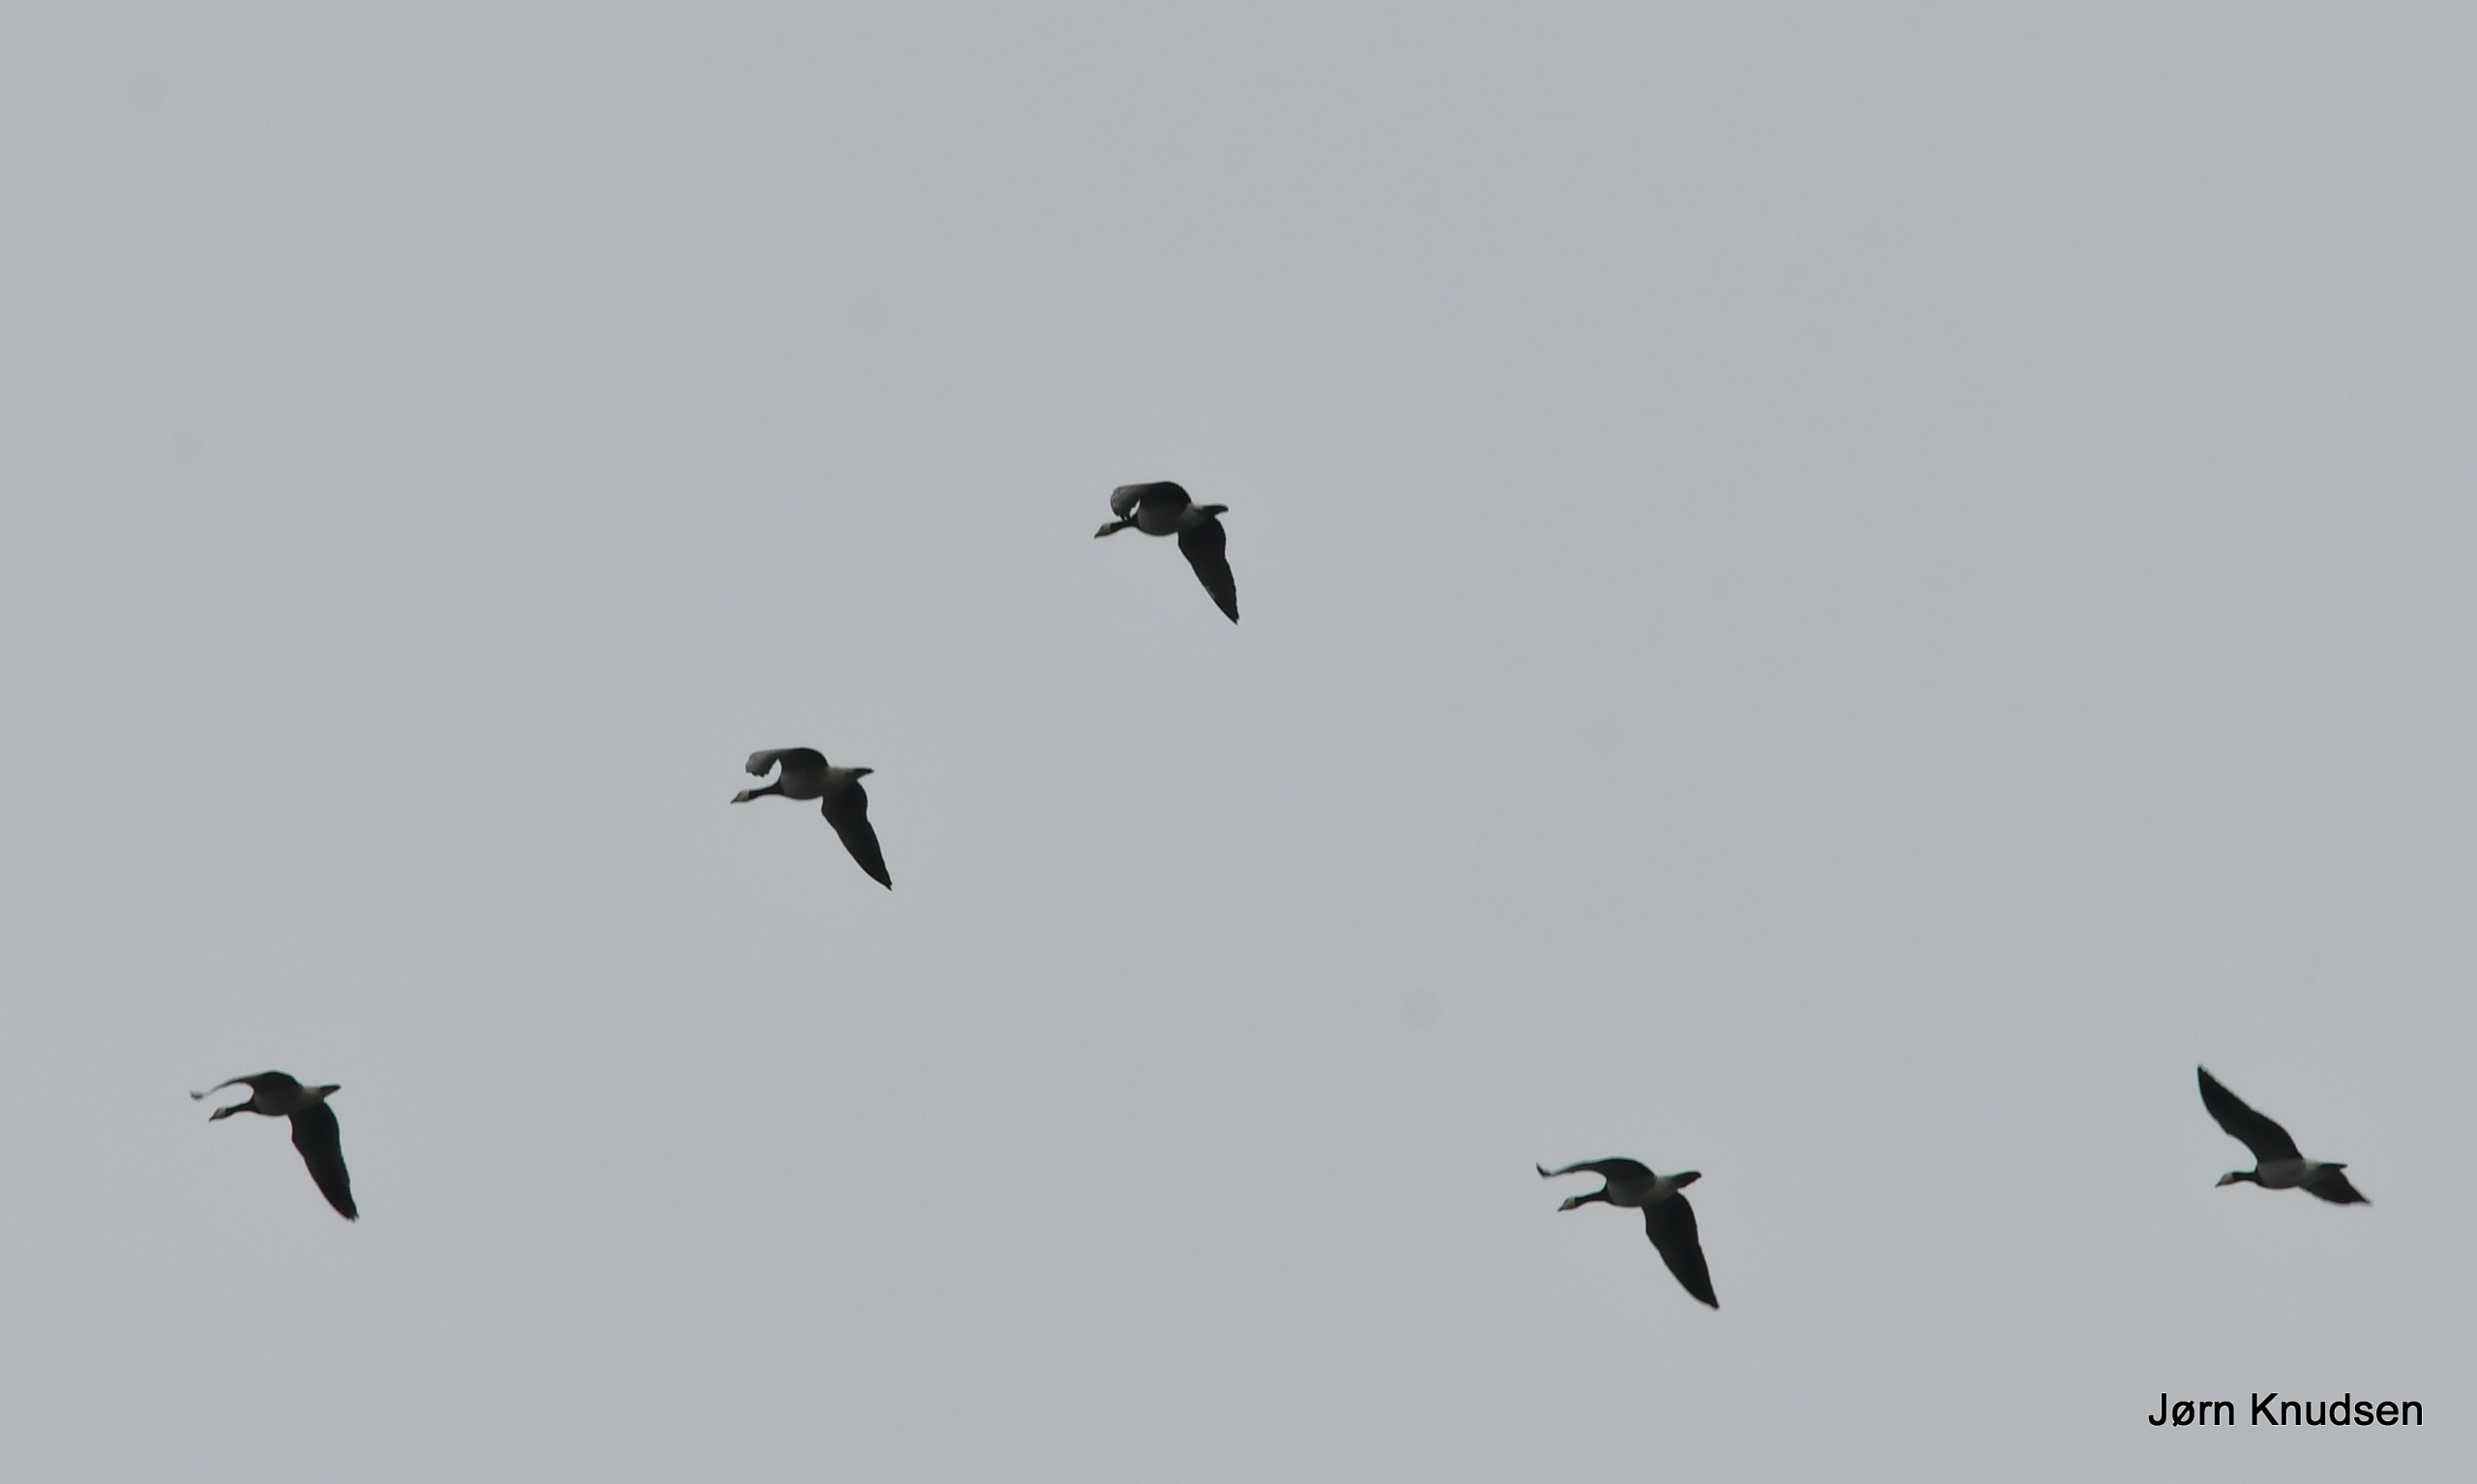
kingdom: Animalia
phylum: Chordata
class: Aves
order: Anseriformes
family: Anatidae
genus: Branta
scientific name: Branta leucopsis
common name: Bramgås
